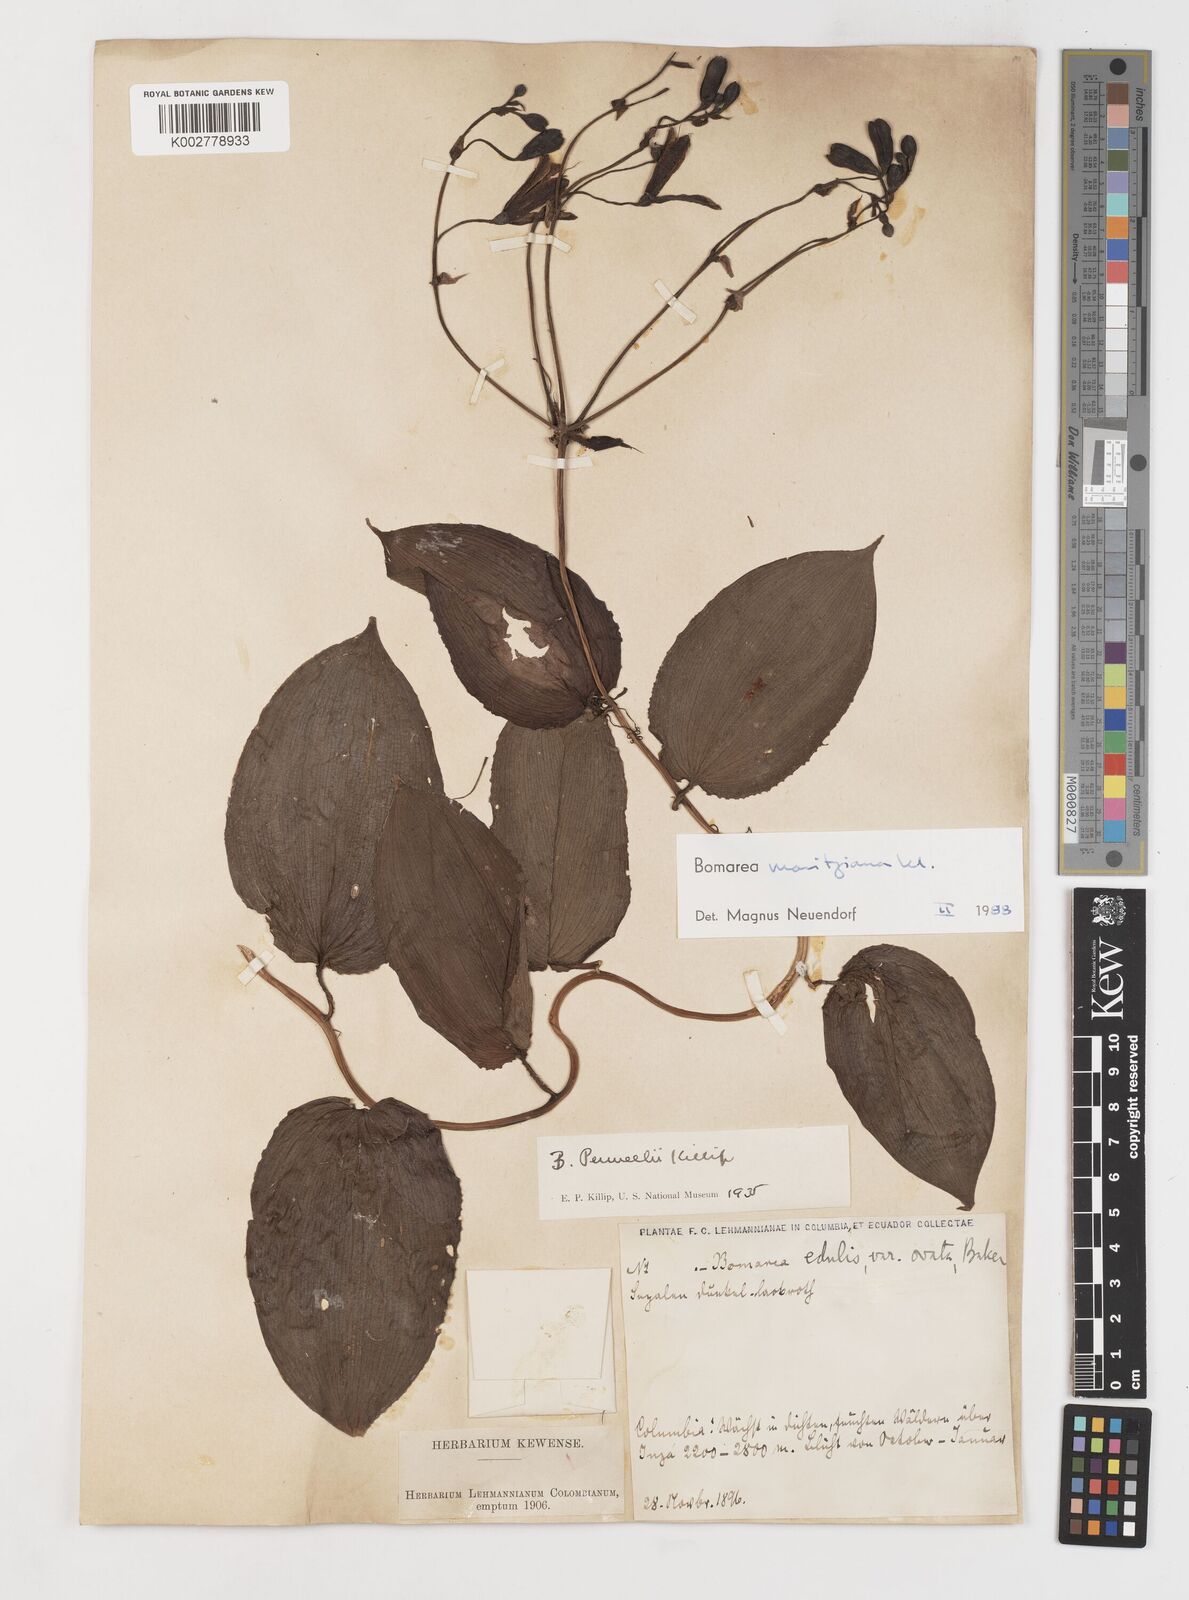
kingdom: Plantae
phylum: Tracheophyta
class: Liliopsida
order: Liliales
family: Alstroemeriaceae
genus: Bomarea
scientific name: Bomarea moritziana
